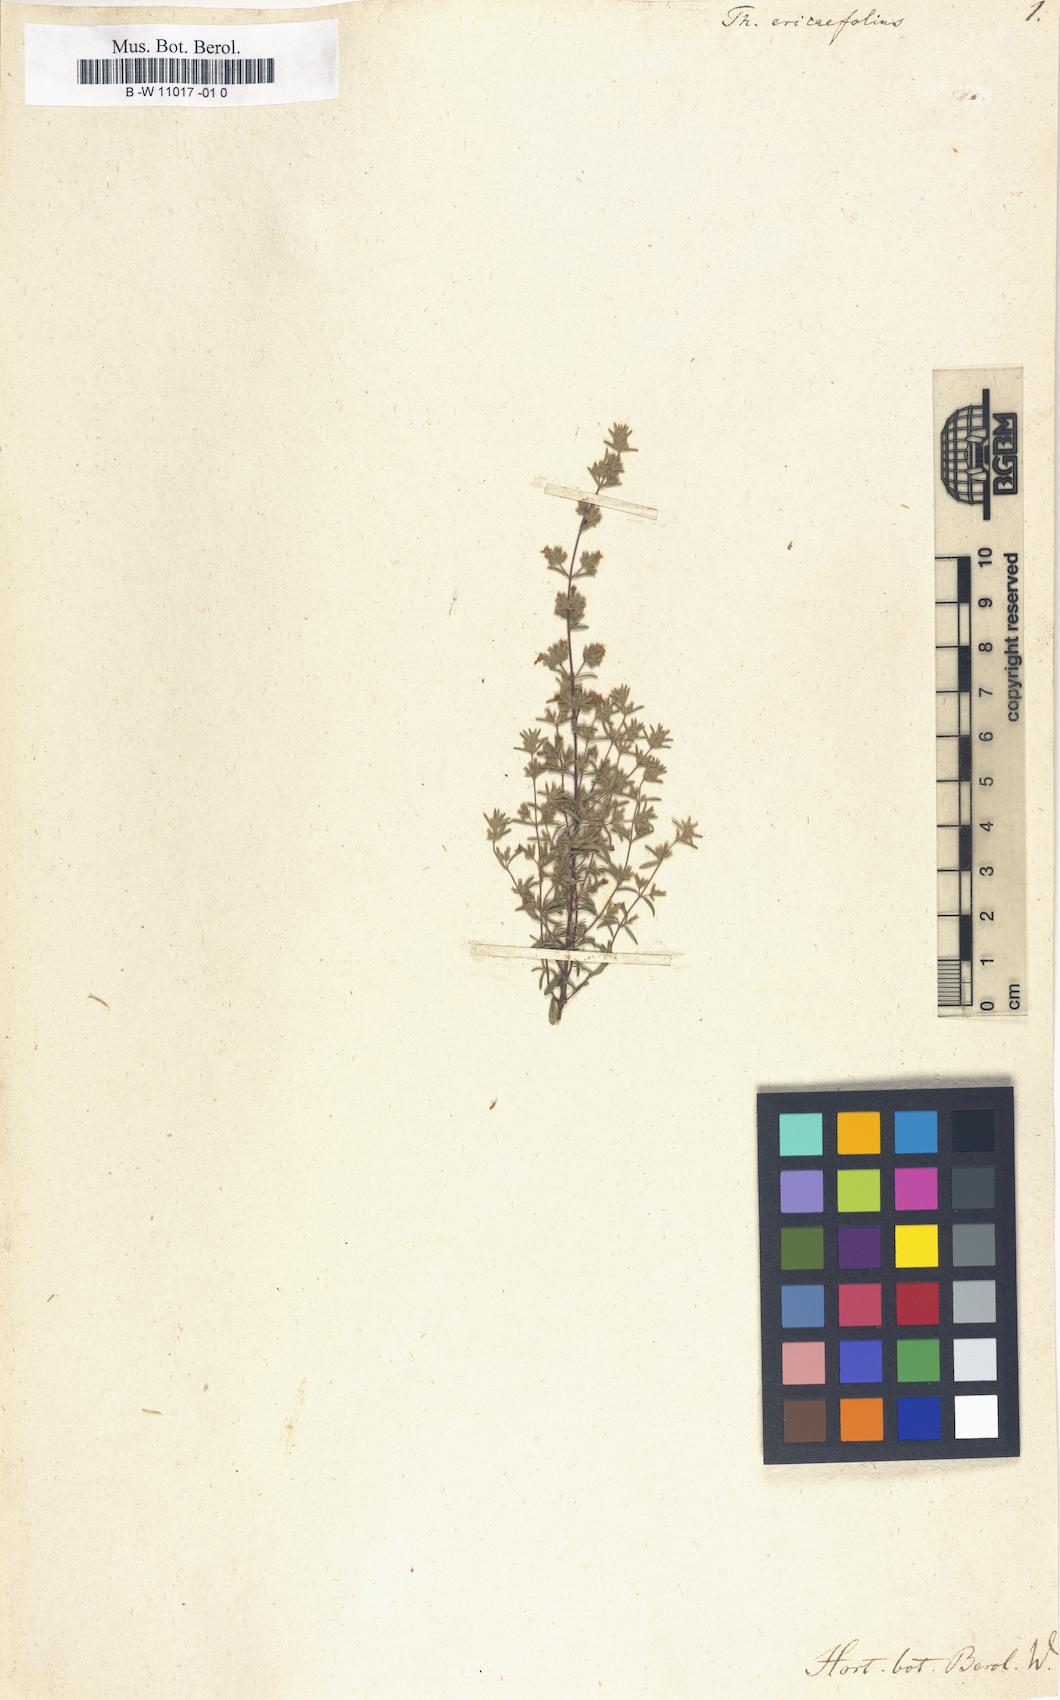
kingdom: Plantae
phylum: Tracheophyta
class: Magnoliopsida
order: Lamiales
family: Lamiaceae
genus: Micromeria
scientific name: Micromeria ericifolia
